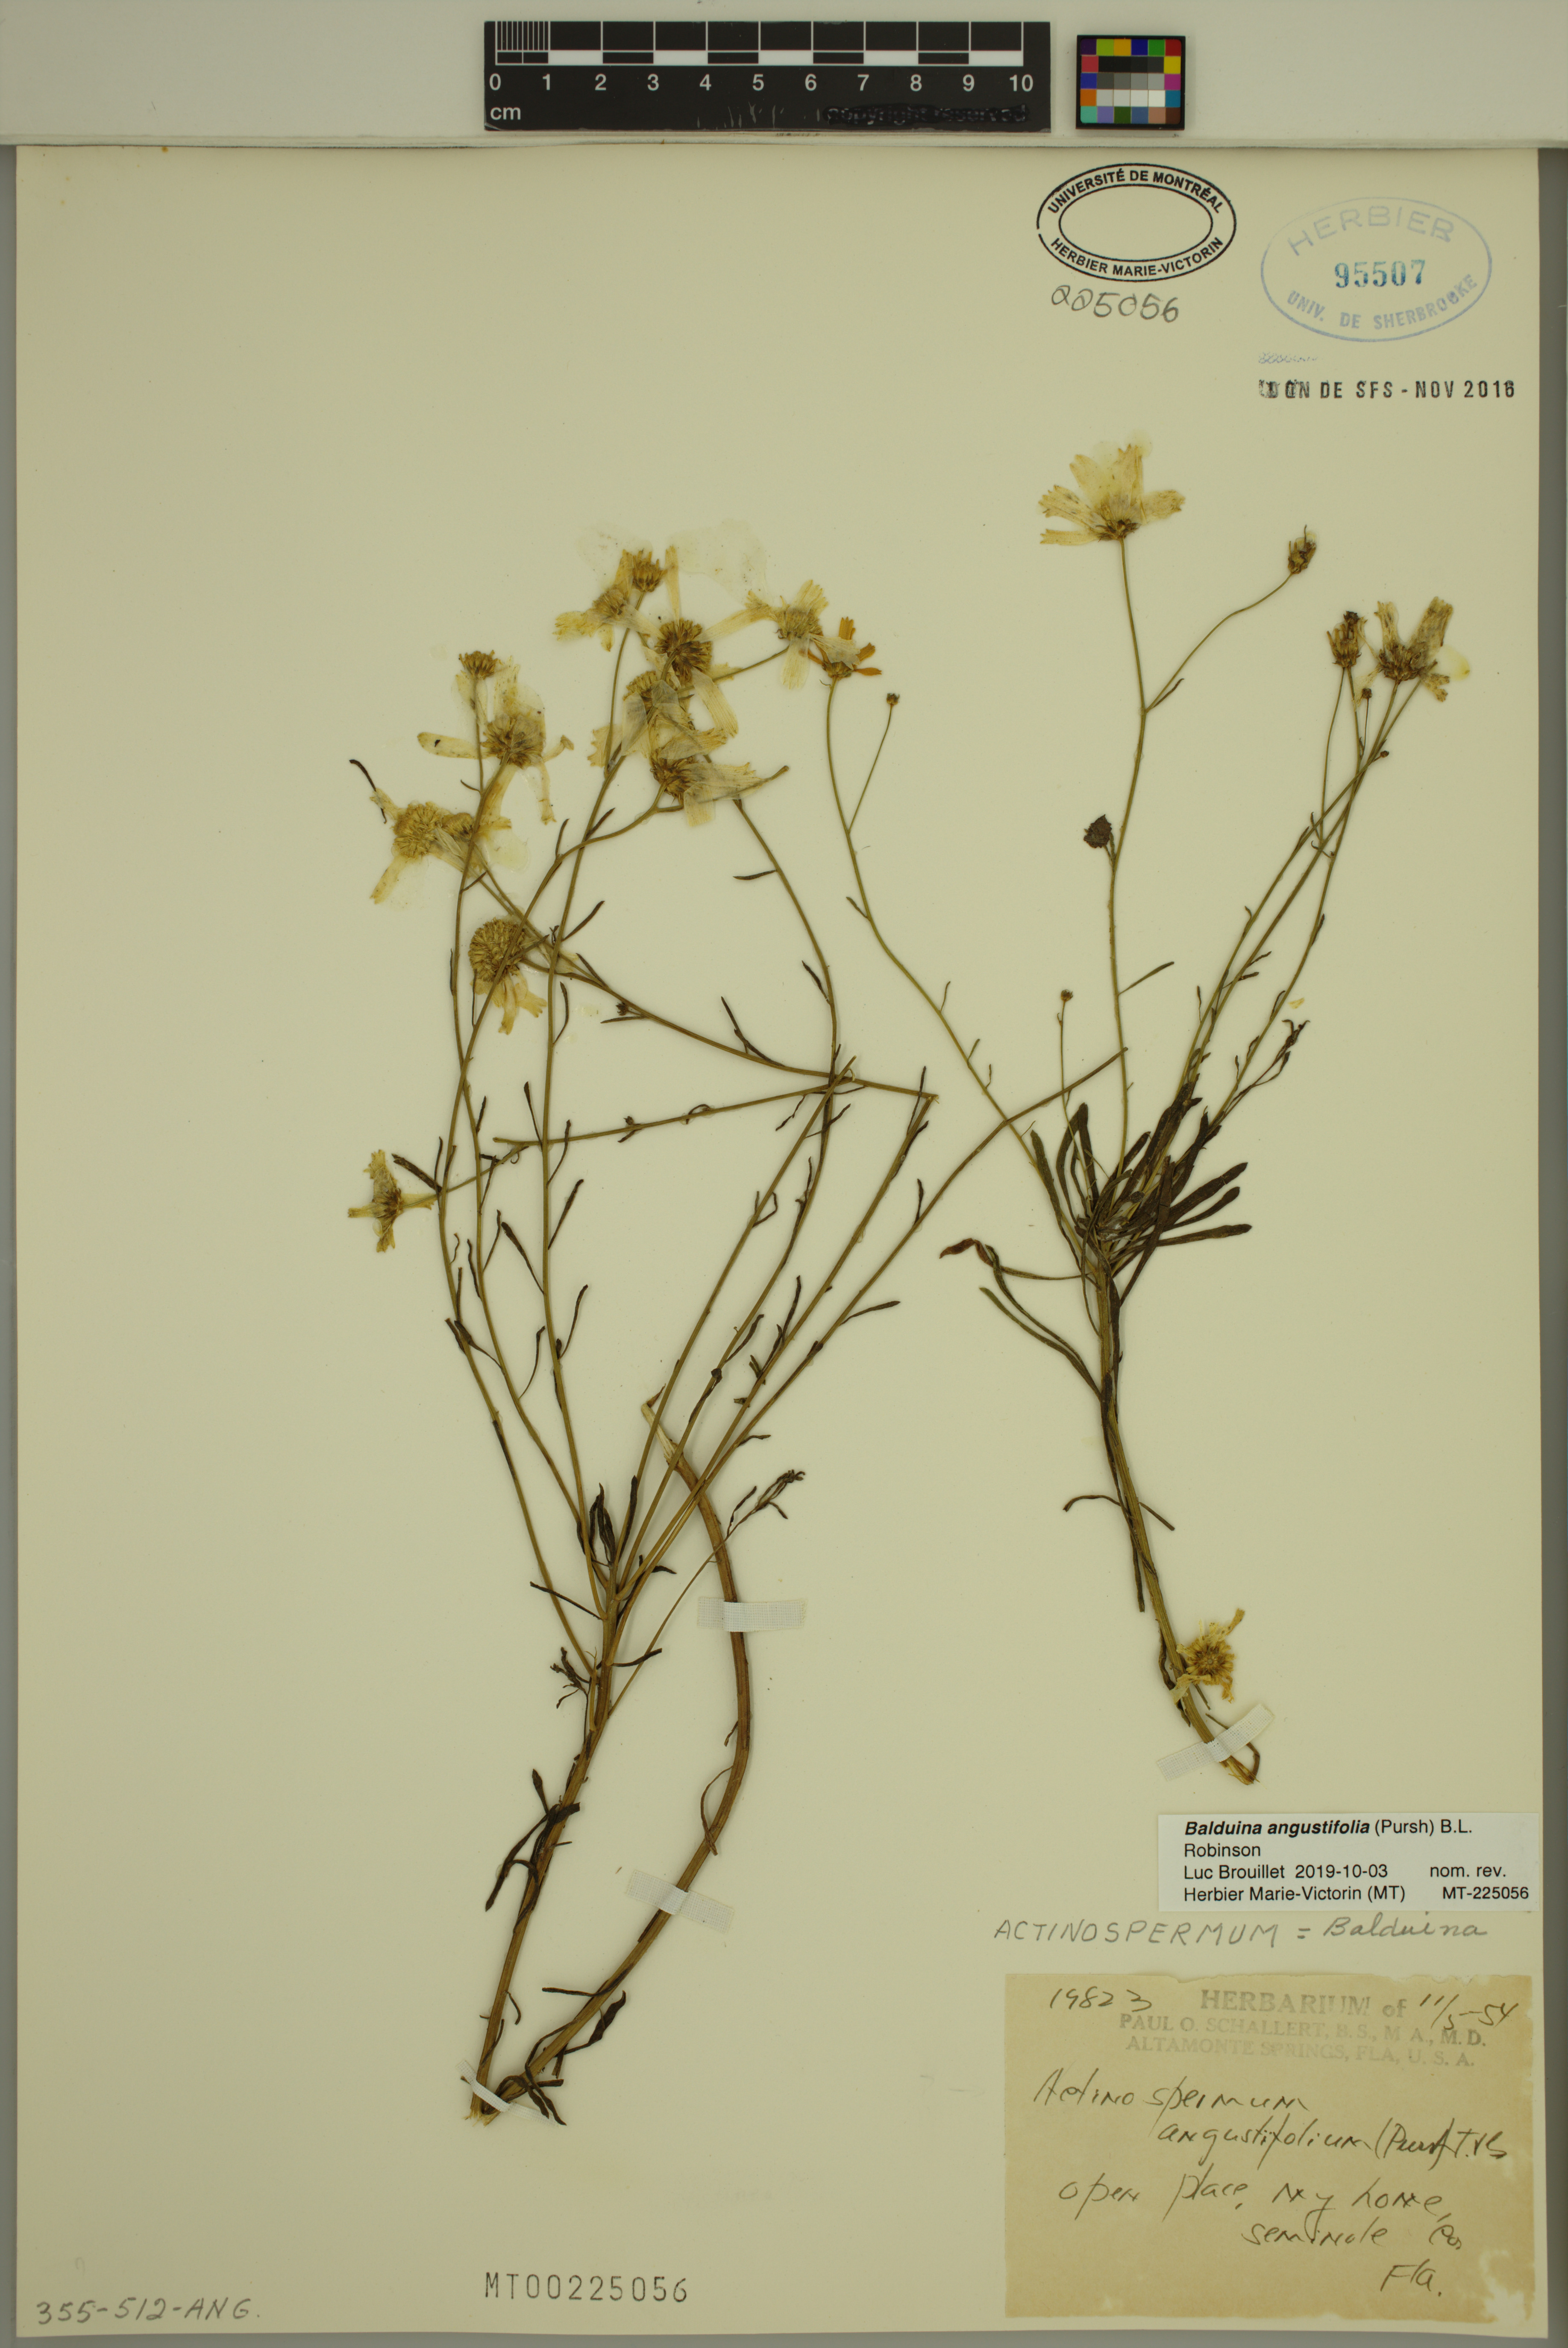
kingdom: Plantae
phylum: Tracheophyta
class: Magnoliopsida
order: Asterales
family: Asteraceae
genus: Balduina
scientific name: Balduina angustifolia
